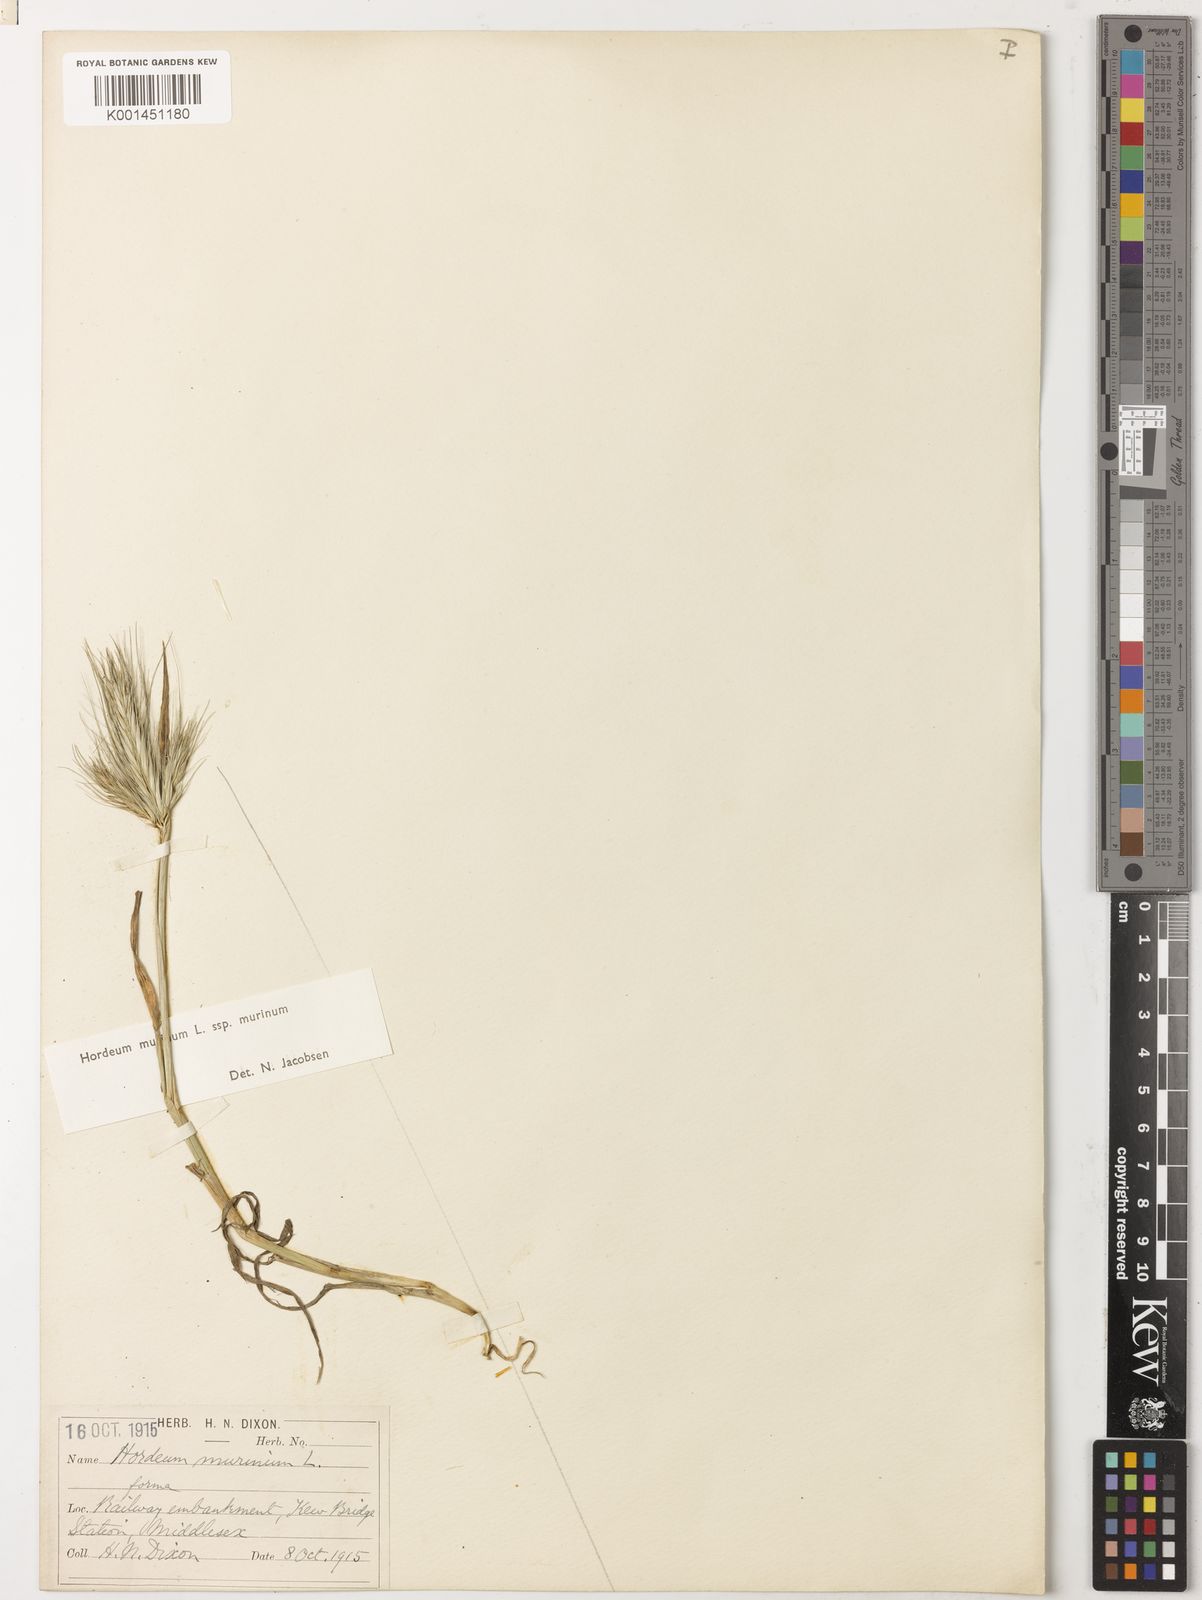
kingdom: Plantae
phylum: Tracheophyta
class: Liliopsida
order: Poales
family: Poaceae
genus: Hordeum
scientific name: Hordeum murinum
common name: Wall barley
